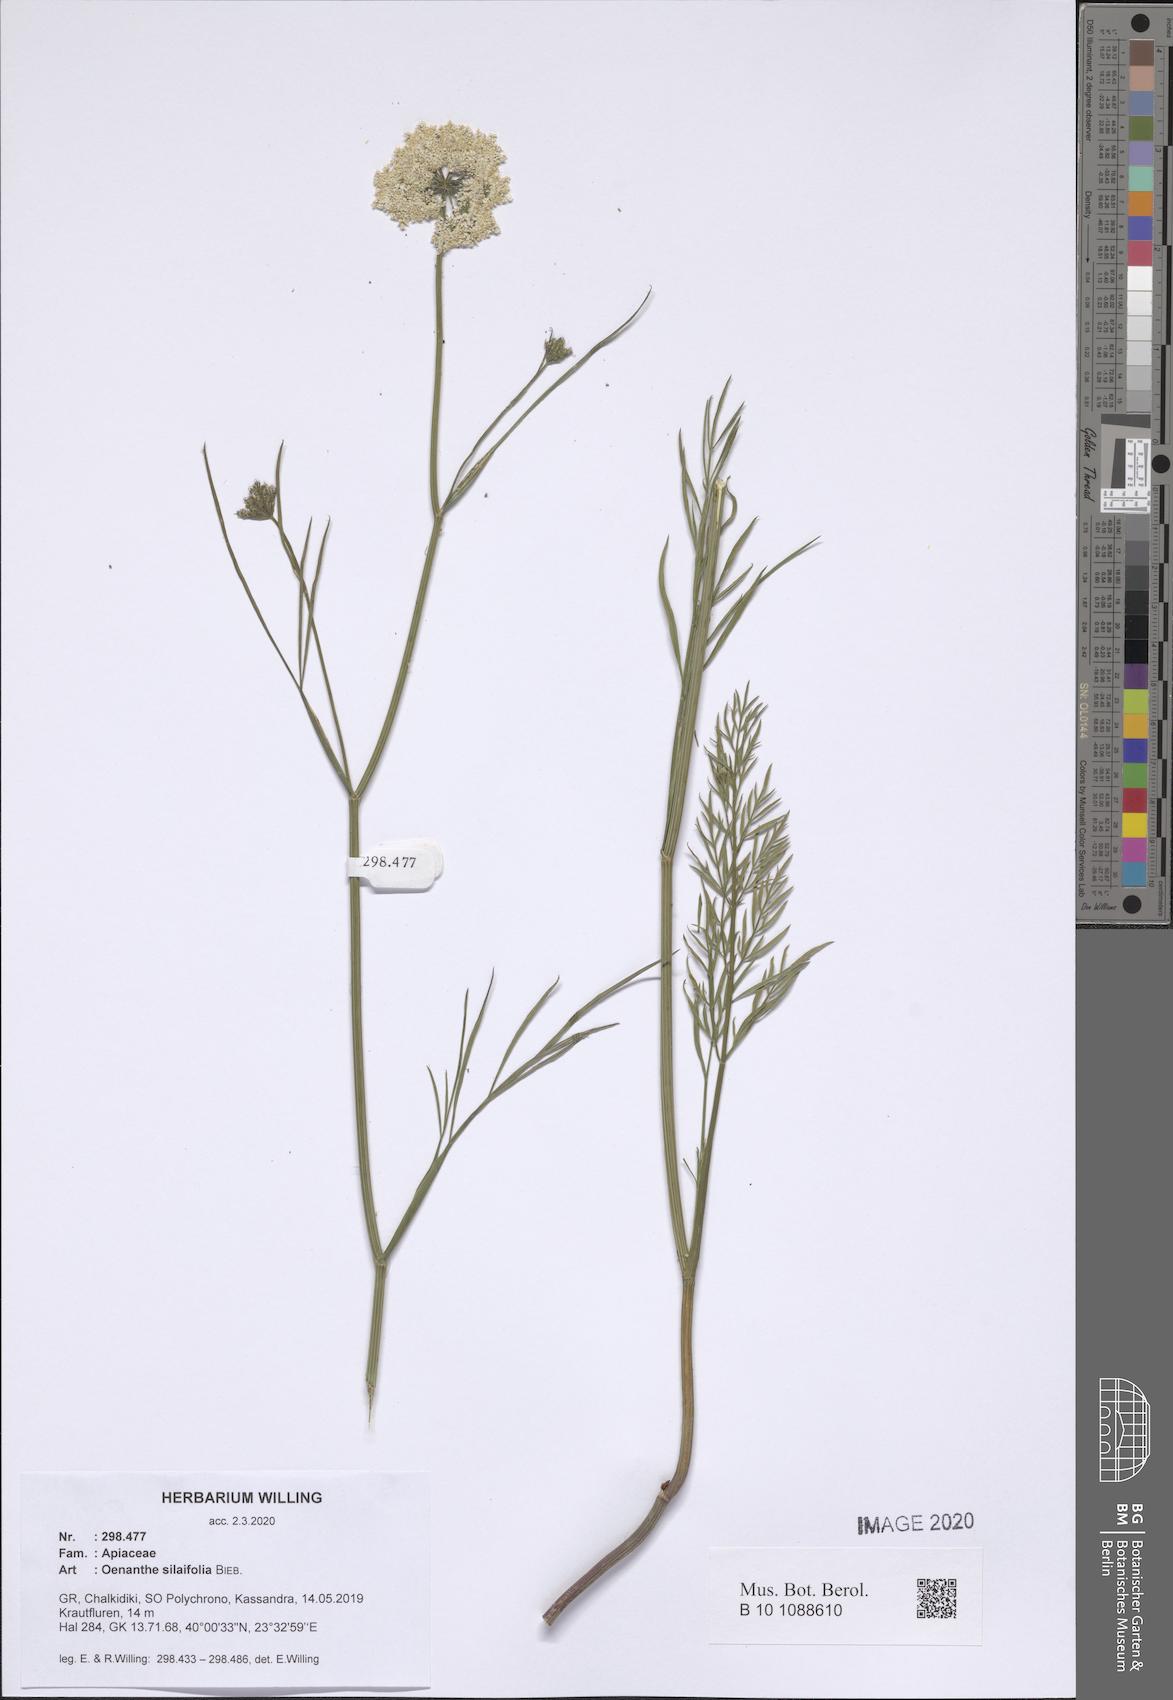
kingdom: Plantae
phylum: Tracheophyta
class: Magnoliopsida
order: Apiales
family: Apiaceae
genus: Oenanthe
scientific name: Oenanthe silaifolia
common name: Narrow-leaved water-dropwort
